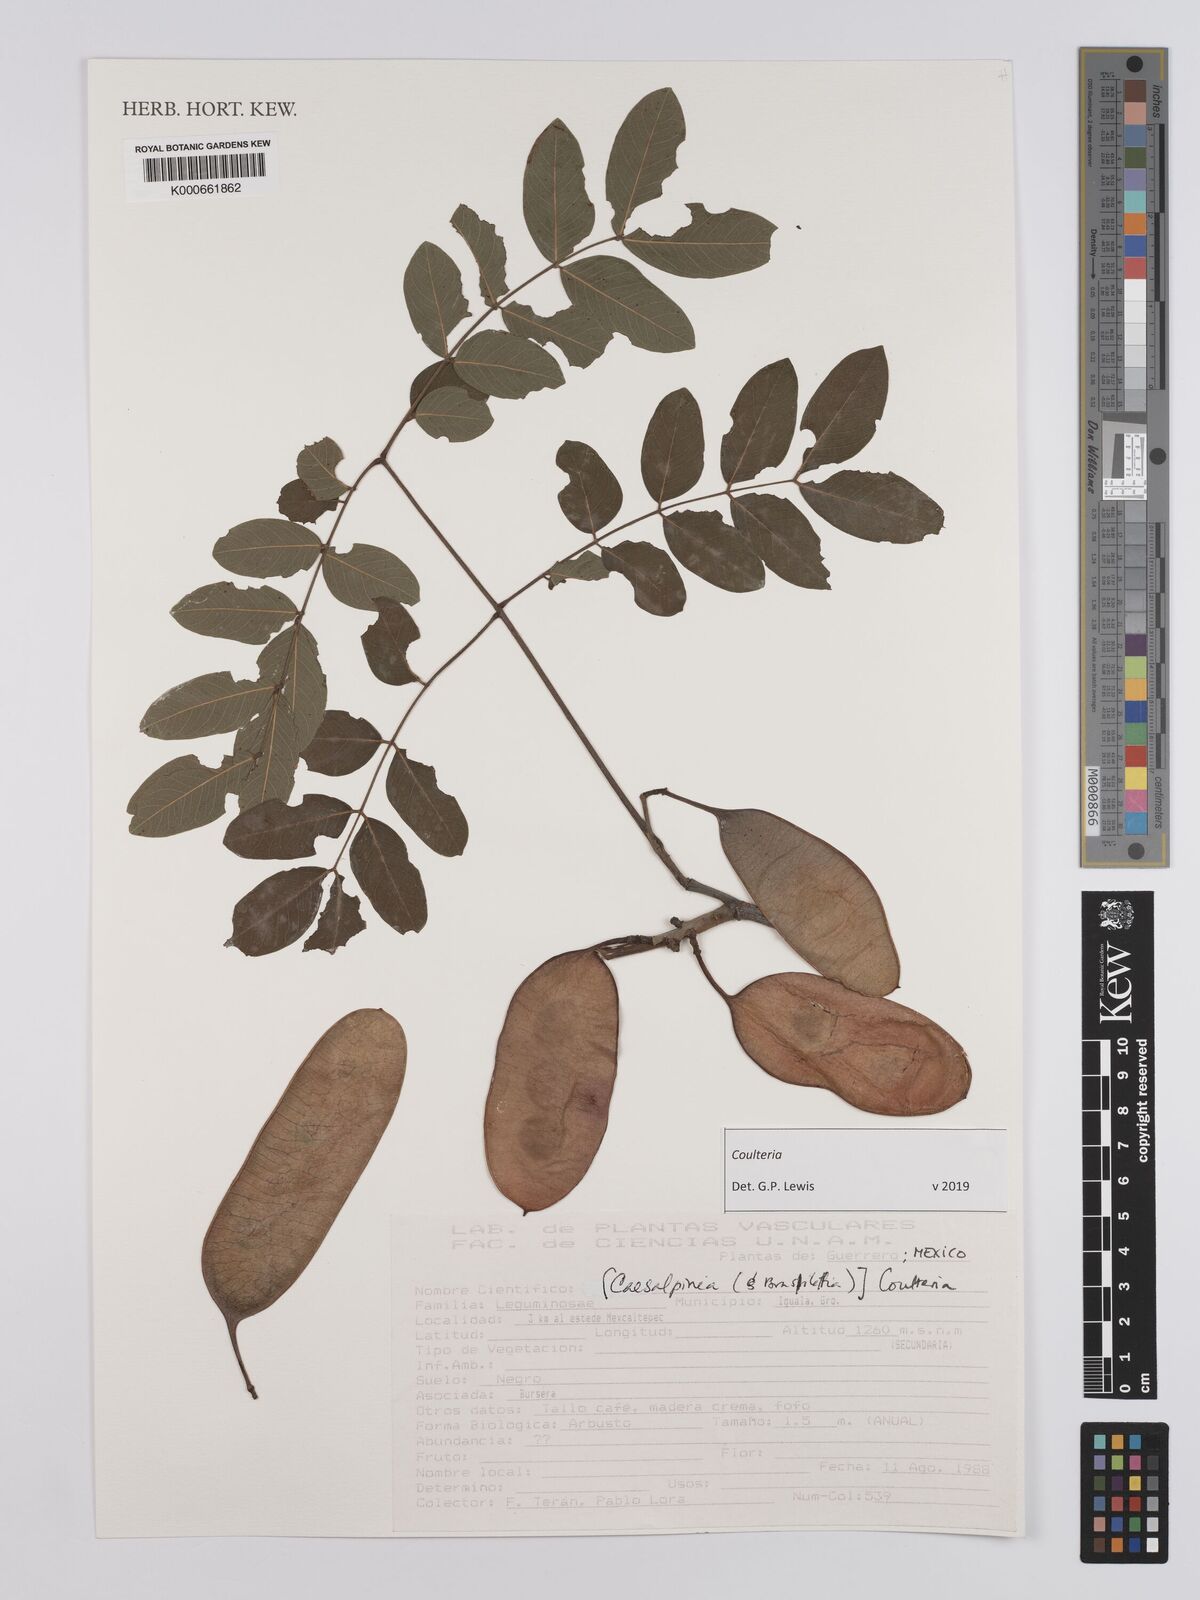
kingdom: Plantae
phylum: Tracheophyta
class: Magnoliopsida
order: Fabales
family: Fabaceae
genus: Coulteria
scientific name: Coulteria
